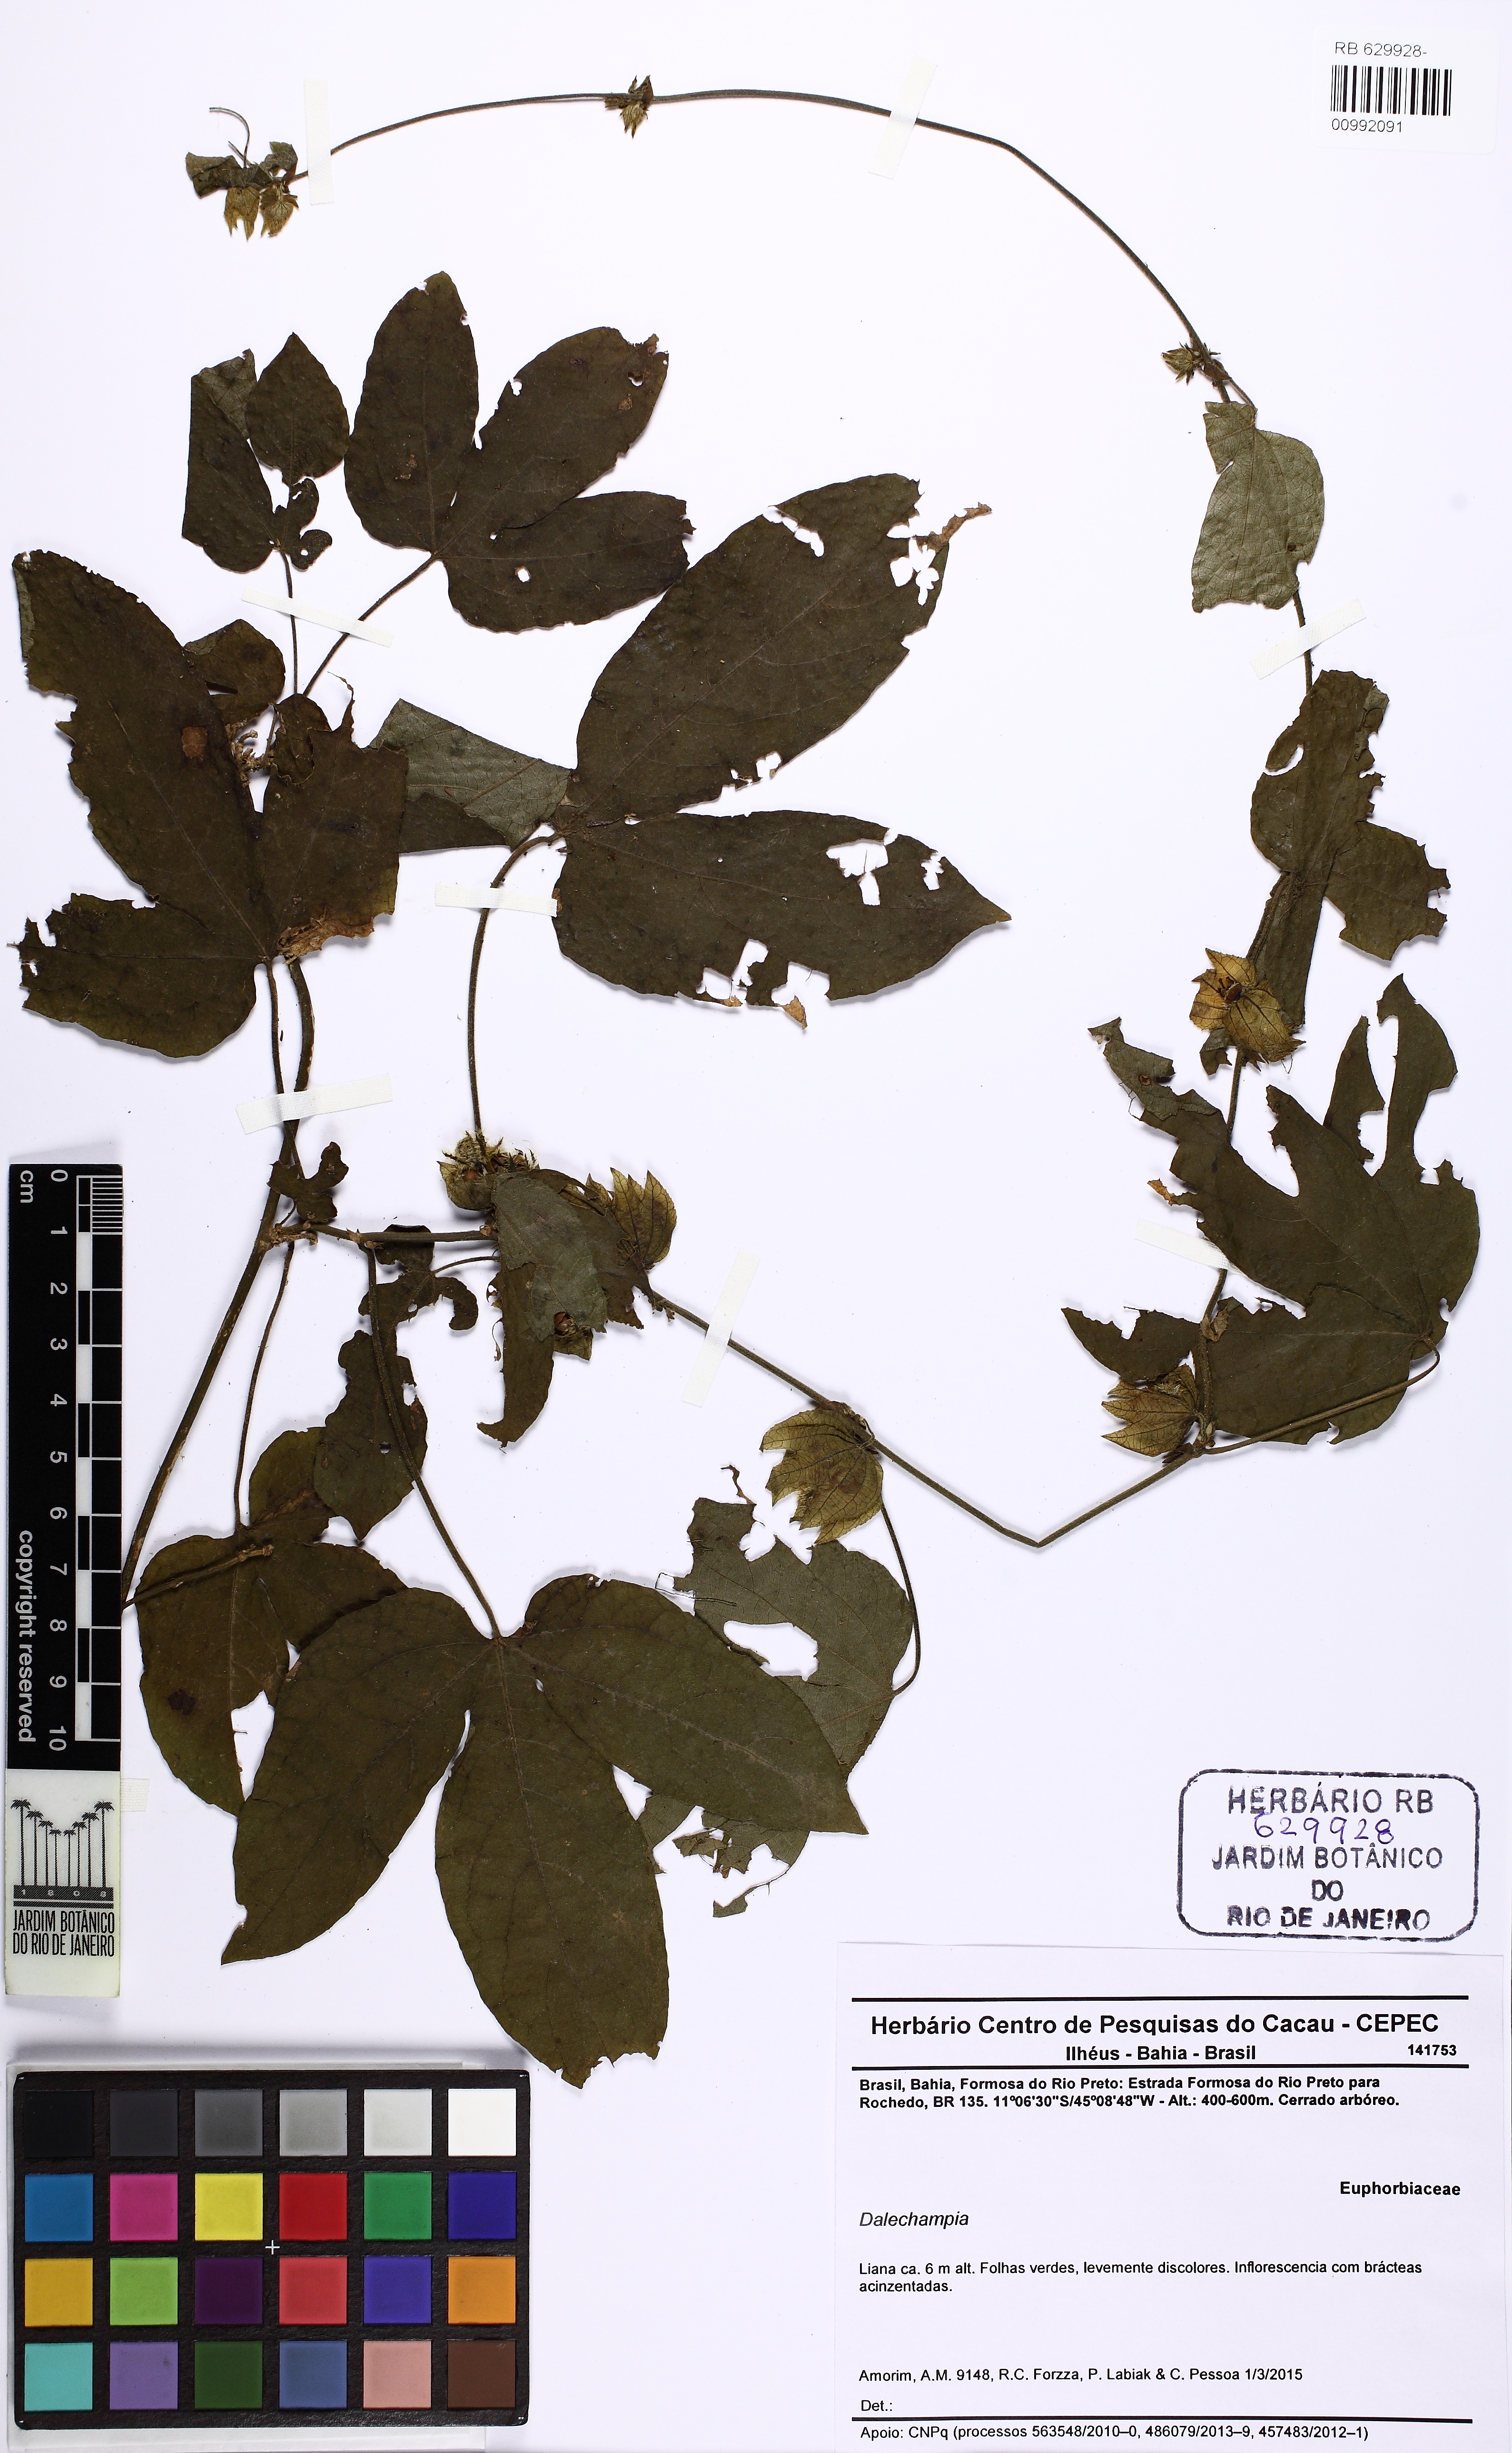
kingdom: Plantae
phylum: Tracheophyta
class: Magnoliopsida
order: Malpighiales
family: Euphorbiaceae
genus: Dalechampia
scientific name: Dalechampia ficifolia
